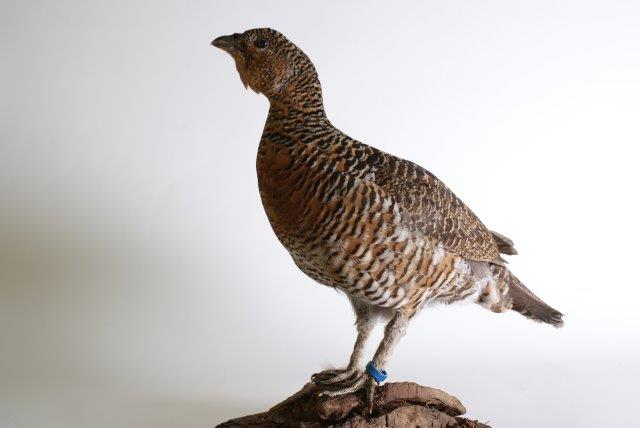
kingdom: Animalia
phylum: Chordata
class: Aves
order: Galliformes
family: Phasianidae
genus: Tetrao
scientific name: Tetrao urogallus
